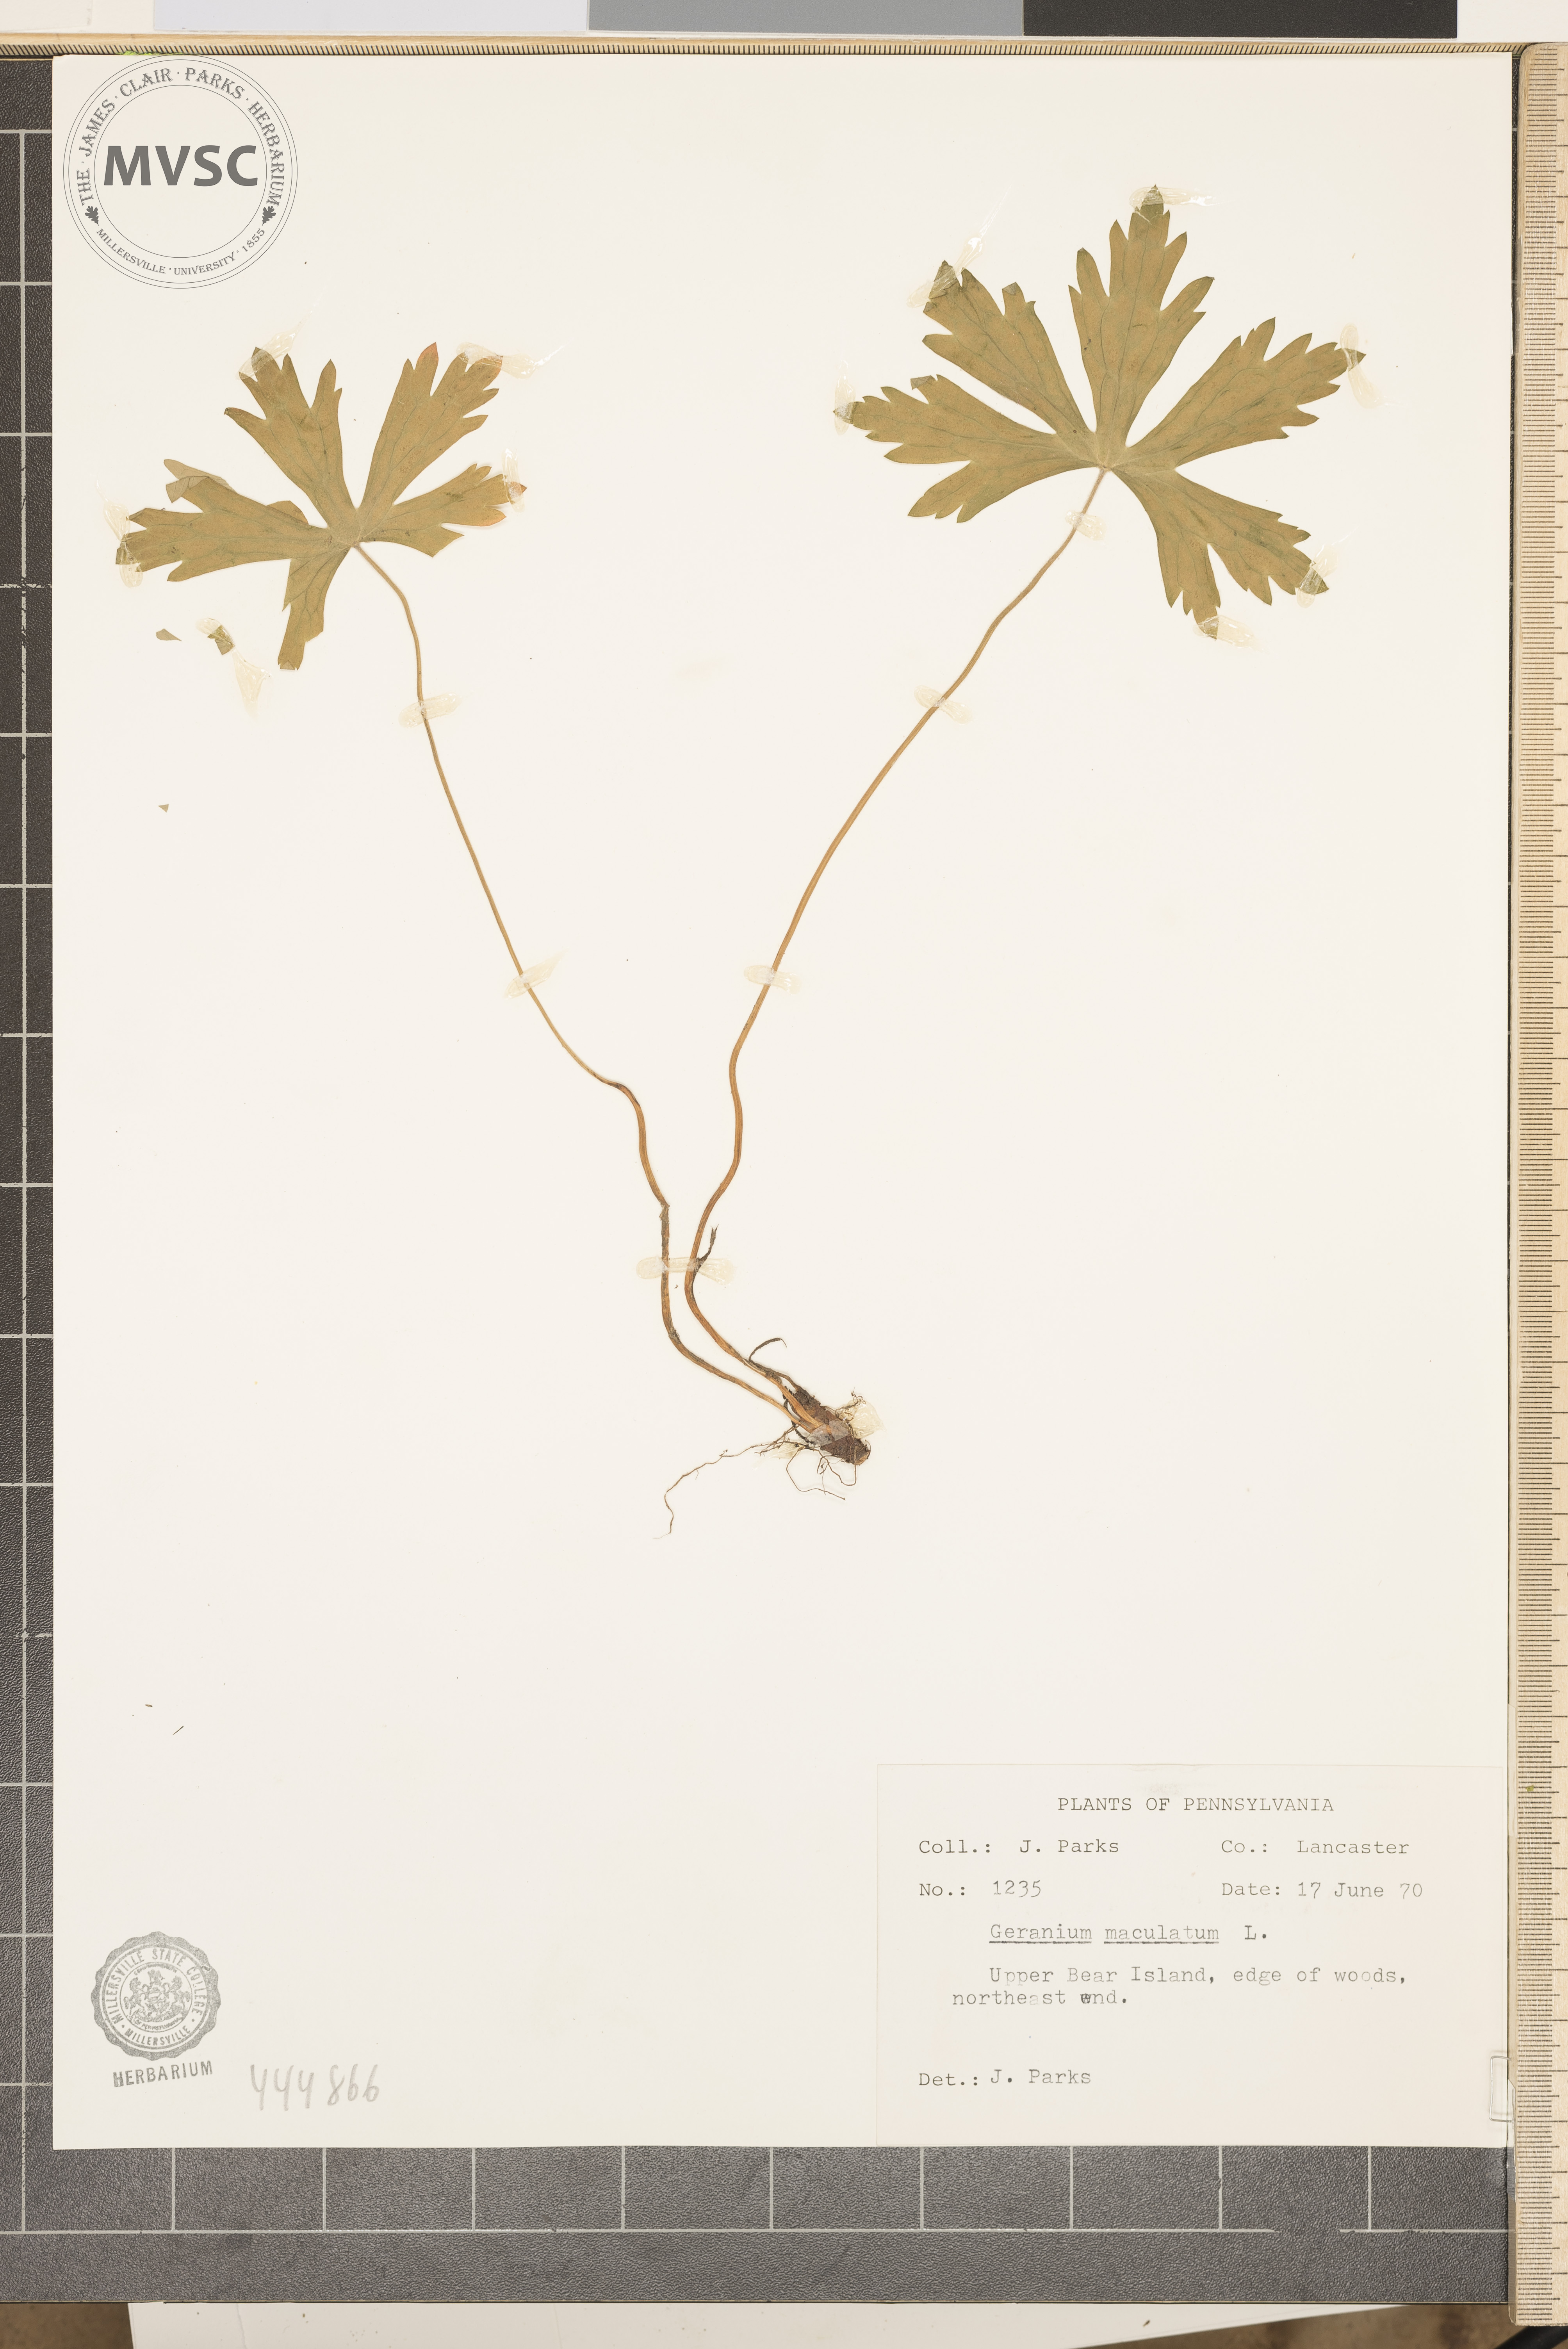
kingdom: Plantae
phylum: Tracheophyta
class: Magnoliopsida
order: Geraniales
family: Geraniaceae
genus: Geranium
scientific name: Geranium maculatum
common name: Spotted geranium
